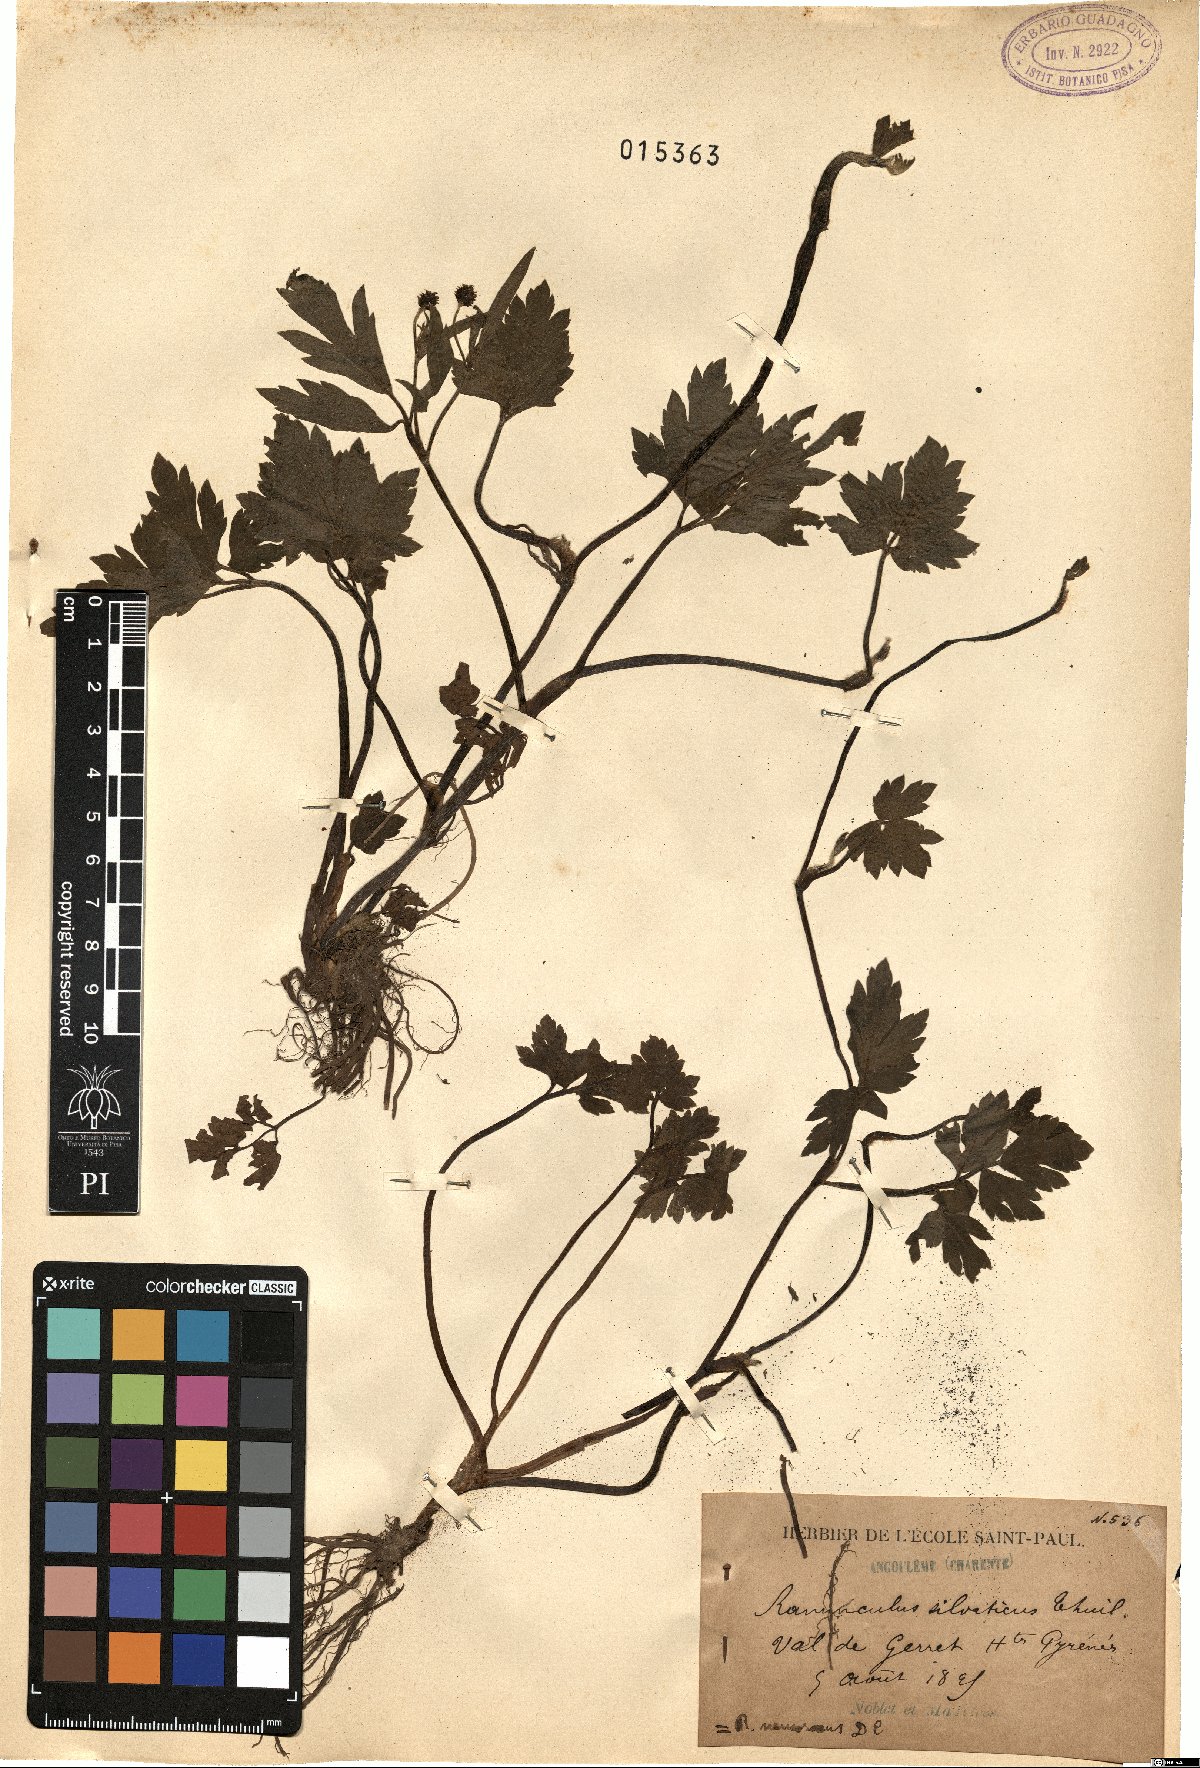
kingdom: Plantae
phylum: Tracheophyta
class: Magnoliopsida
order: Ranunculales
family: Ranunculaceae
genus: Ranunculus
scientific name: Ranunculus acris
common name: Meadow buttercup
